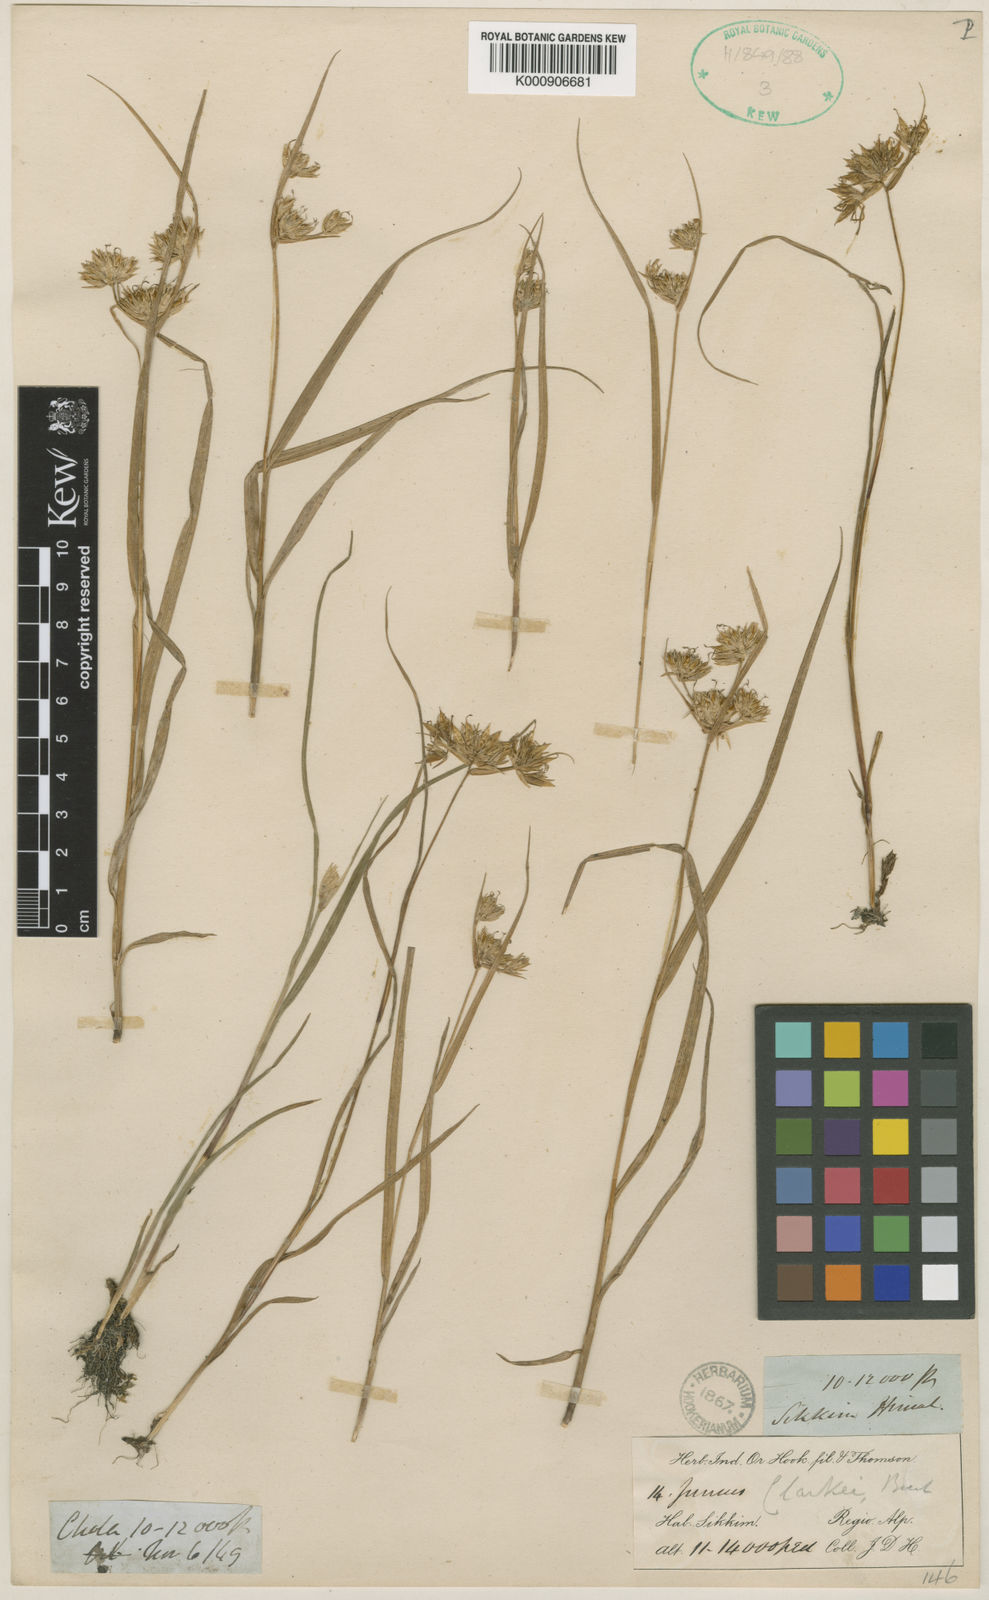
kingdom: Plantae
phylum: Tracheophyta
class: Liliopsida
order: Poales
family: Juncaceae
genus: Juncus
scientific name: Juncus clarkei
